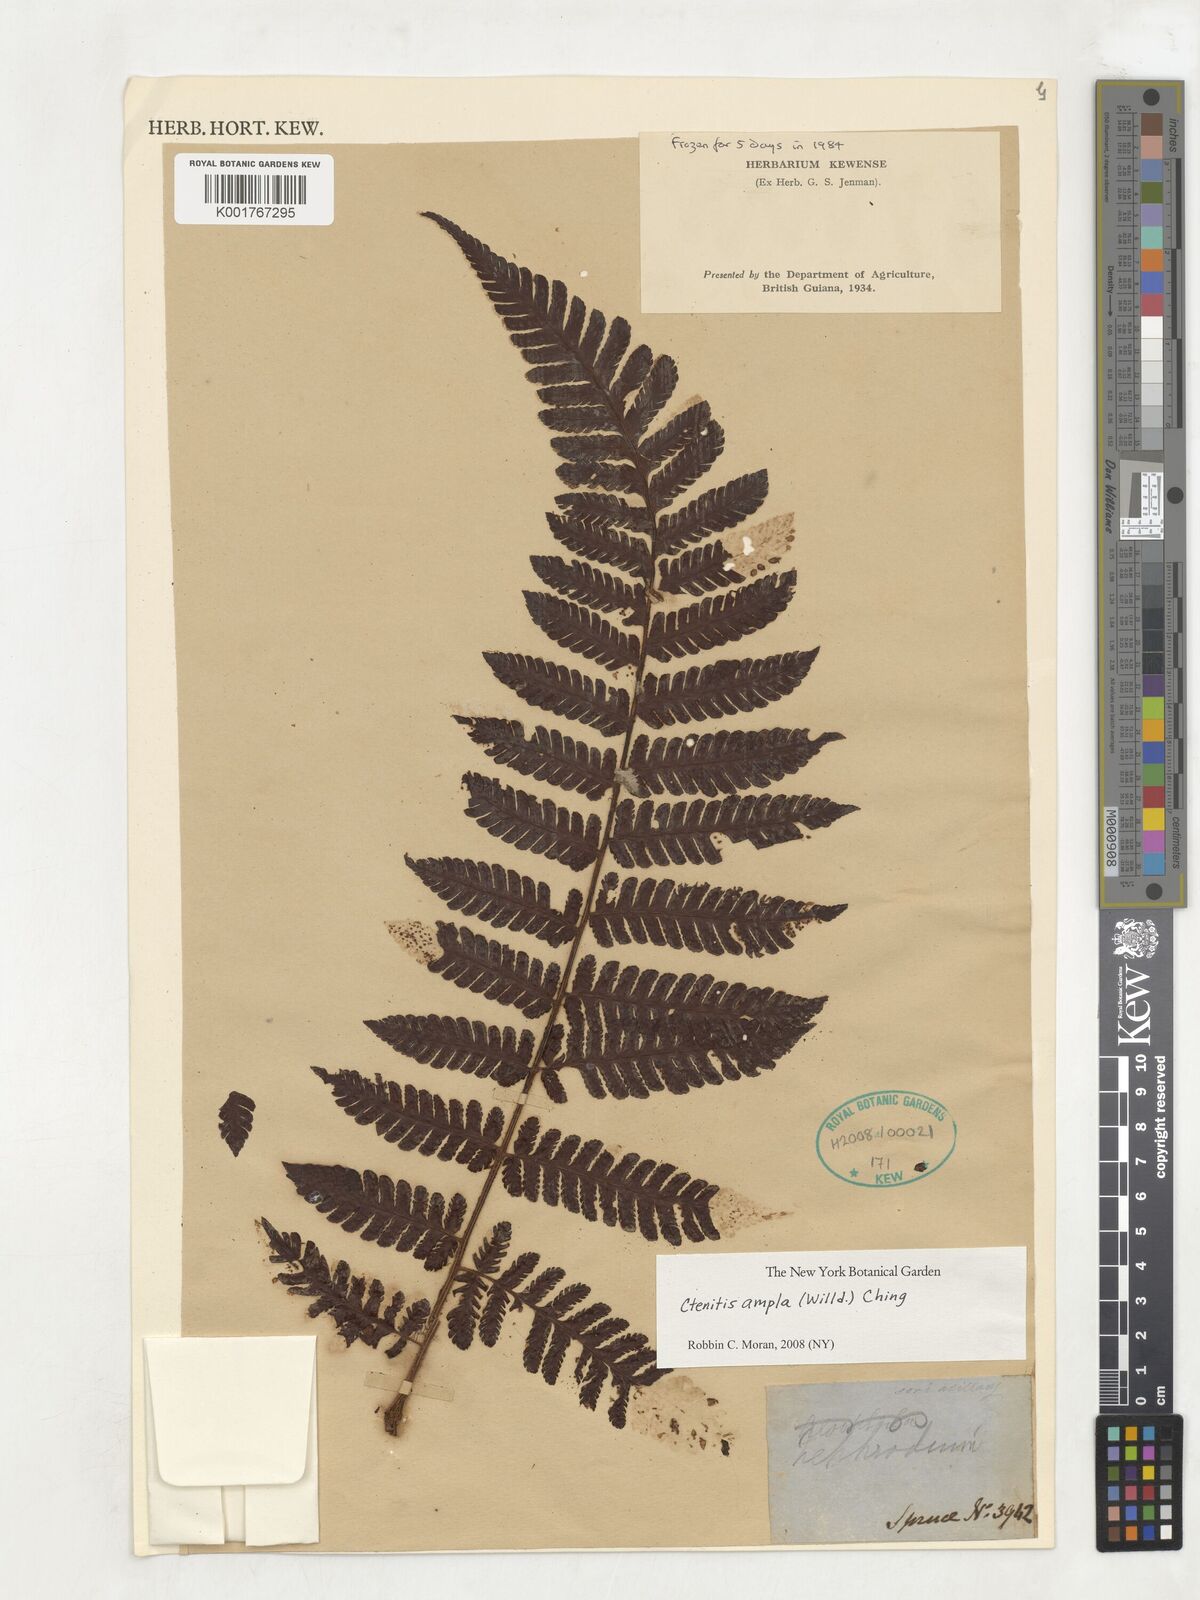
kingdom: Plantae
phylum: Tracheophyta
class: Polypodiopsida
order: Polypodiales
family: Dryopteridaceae
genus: Ctenitis
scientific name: Ctenitis sloanei
